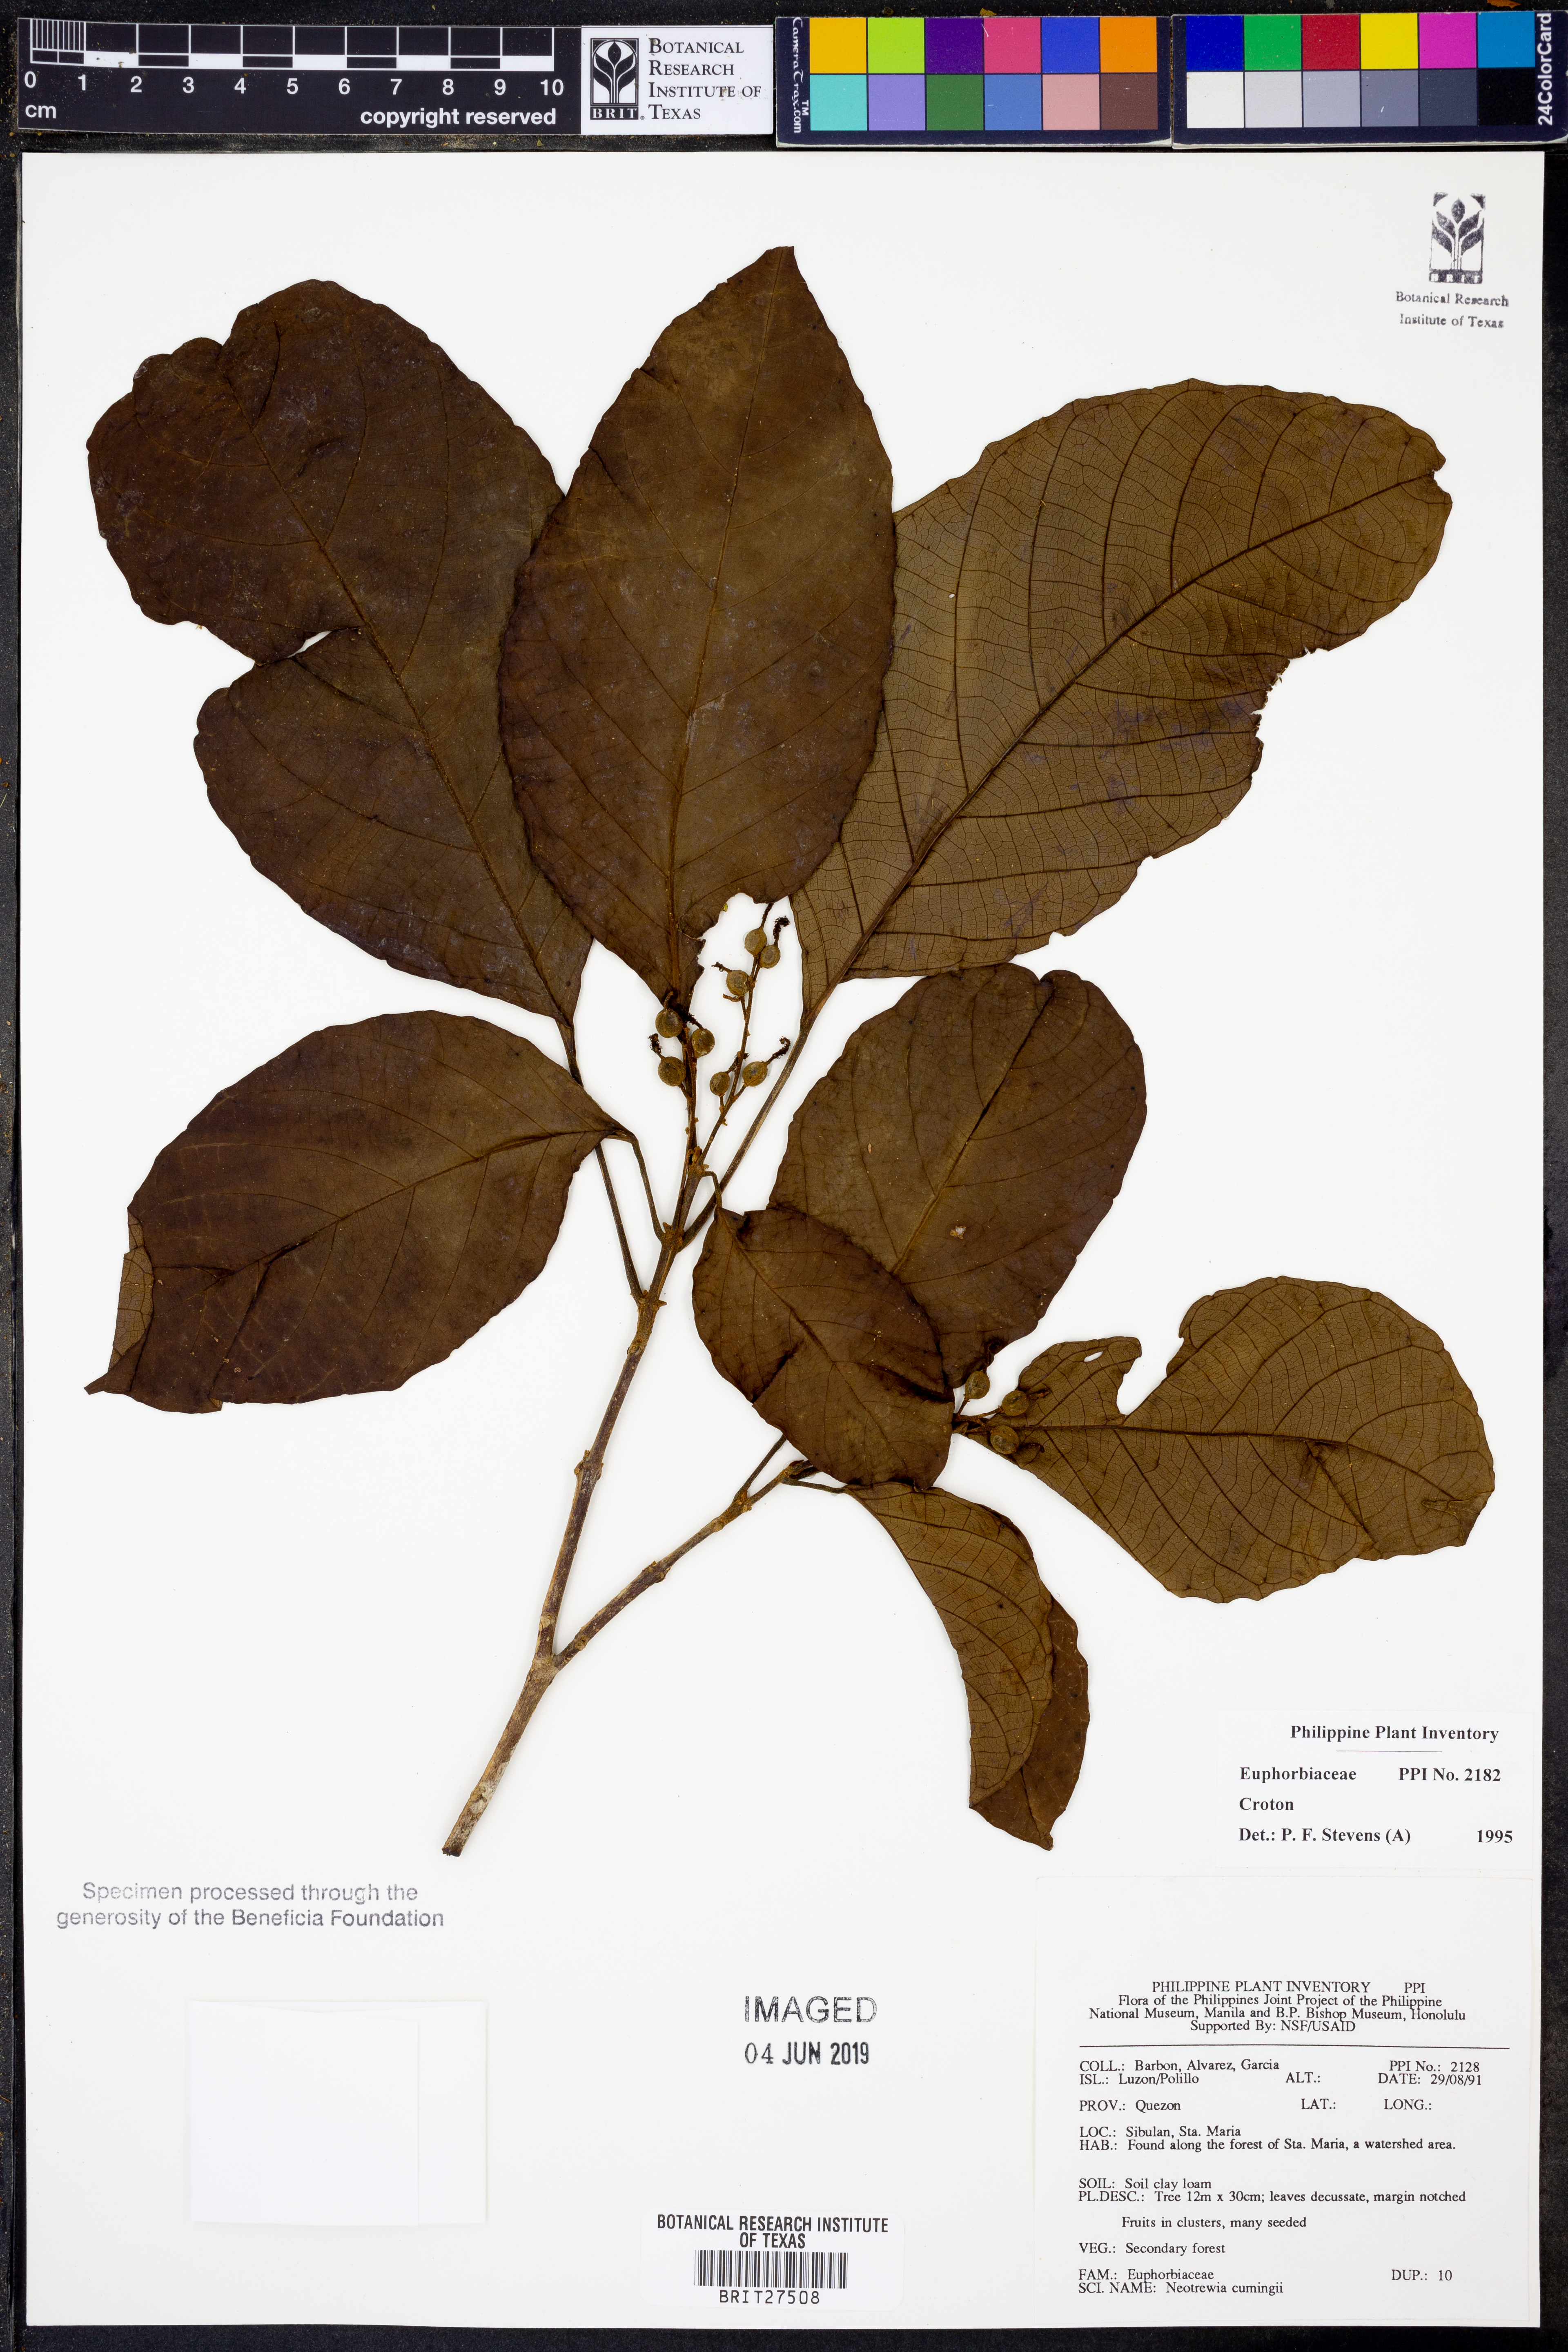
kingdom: Plantae
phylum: Tracheophyta
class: Magnoliopsida
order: Malpighiales
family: Euphorbiaceae
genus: Croton
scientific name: Croton
